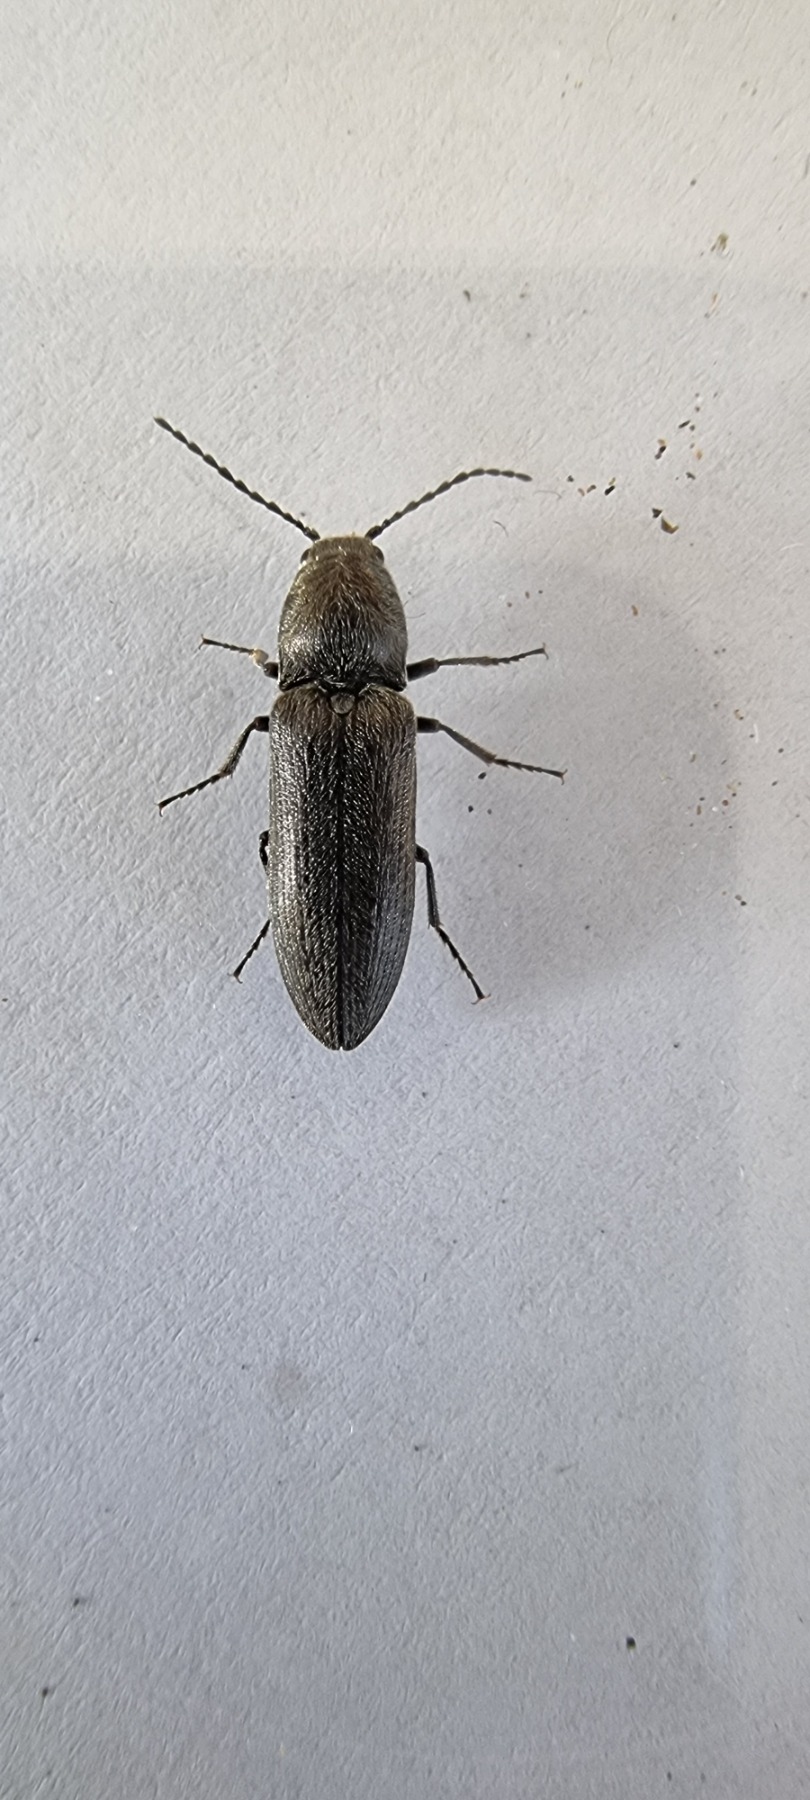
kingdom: Animalia
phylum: Arthropoda
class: Insecta
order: Coleoptera
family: Elateridae
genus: Cidnopus
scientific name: Cidnopus aeruginosus
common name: Ligebred græssmælder
